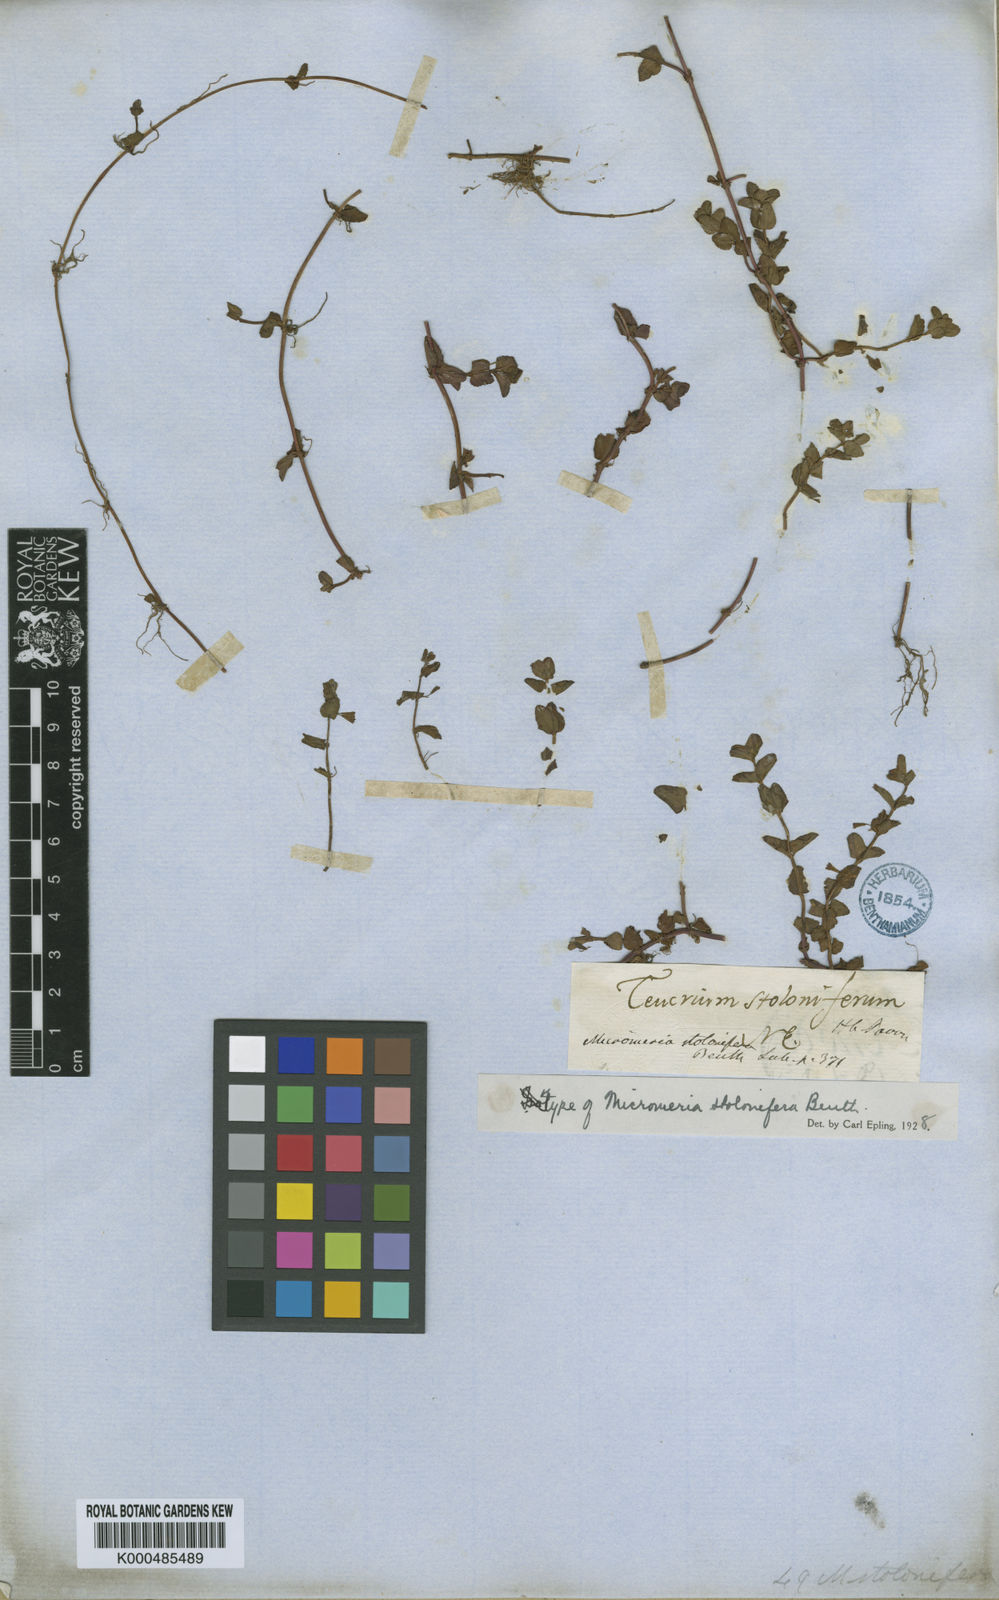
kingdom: Plantae
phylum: Tracheophyta
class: Magnoliopsida
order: Lamiales
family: Lamiaceae
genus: Clinopodium
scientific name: Clinopodium brownei
